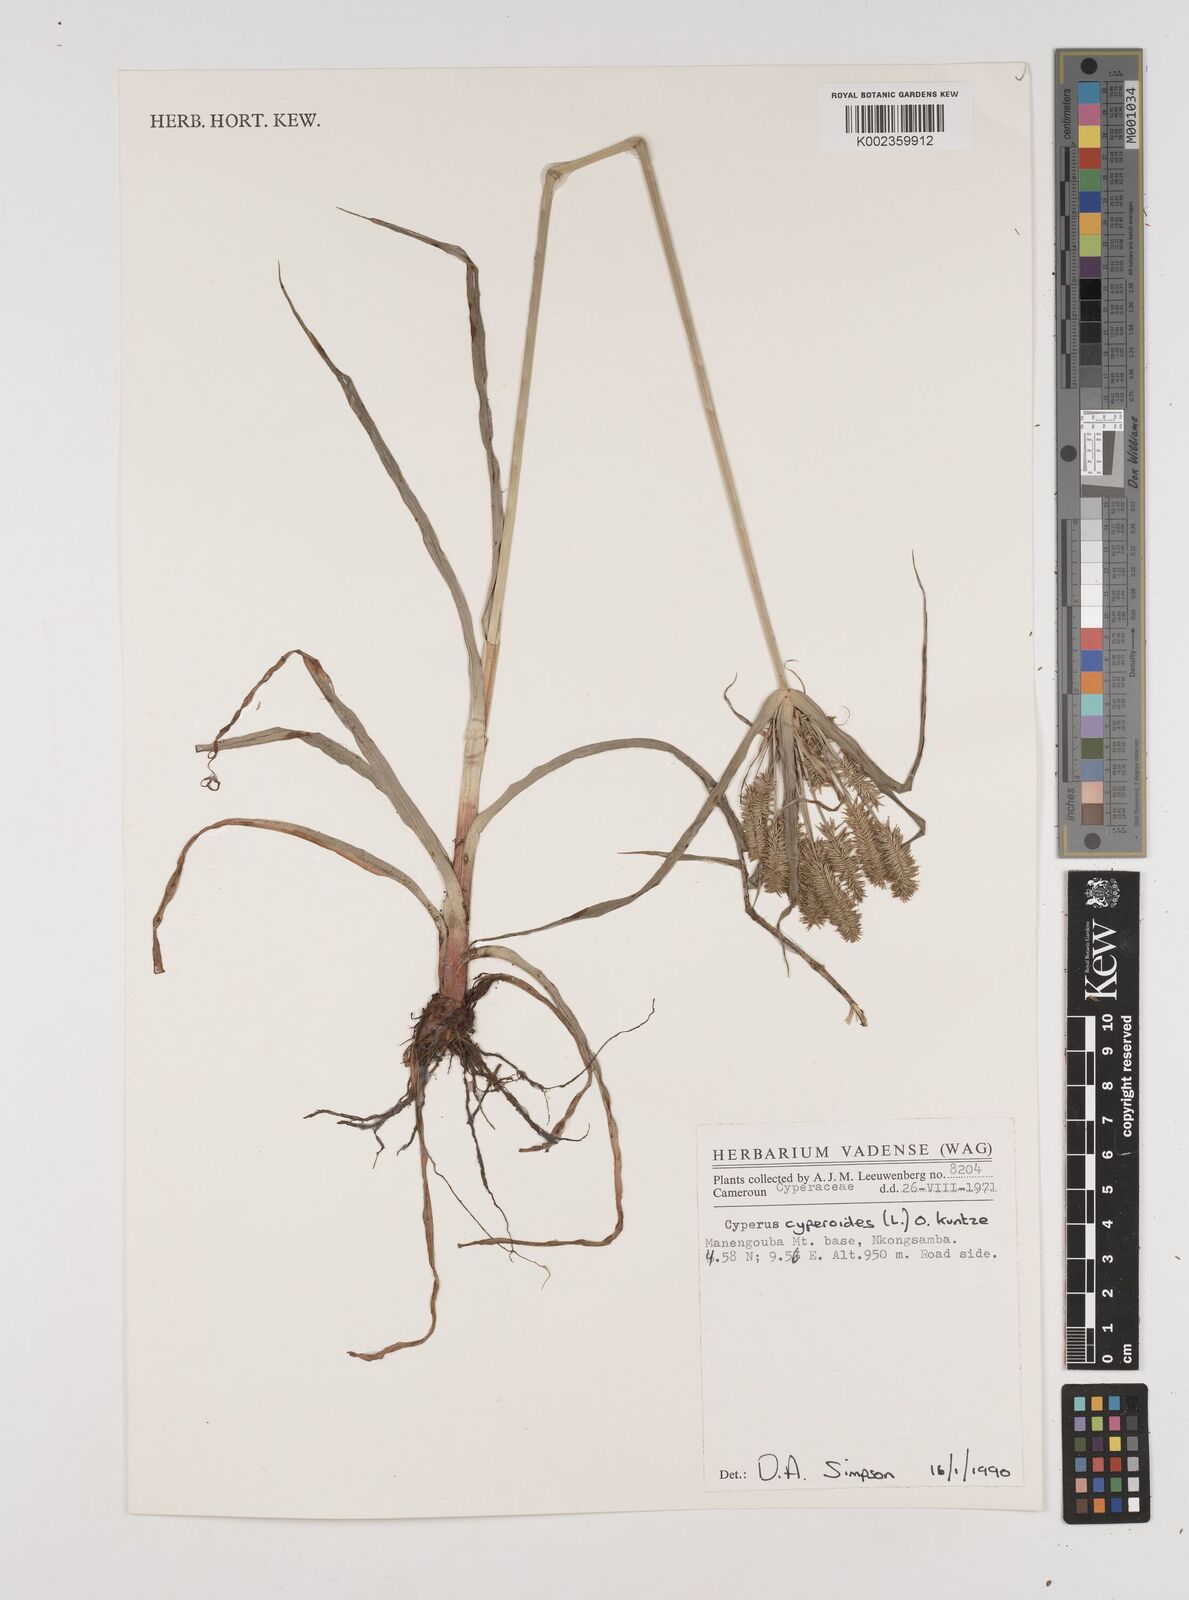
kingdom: Plantae
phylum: Tracheophyta
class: Liliopsida
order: Poales
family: Cyperaceae
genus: Cyperus
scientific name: Cyperus cyperoides
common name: Pacific island flat sedge
